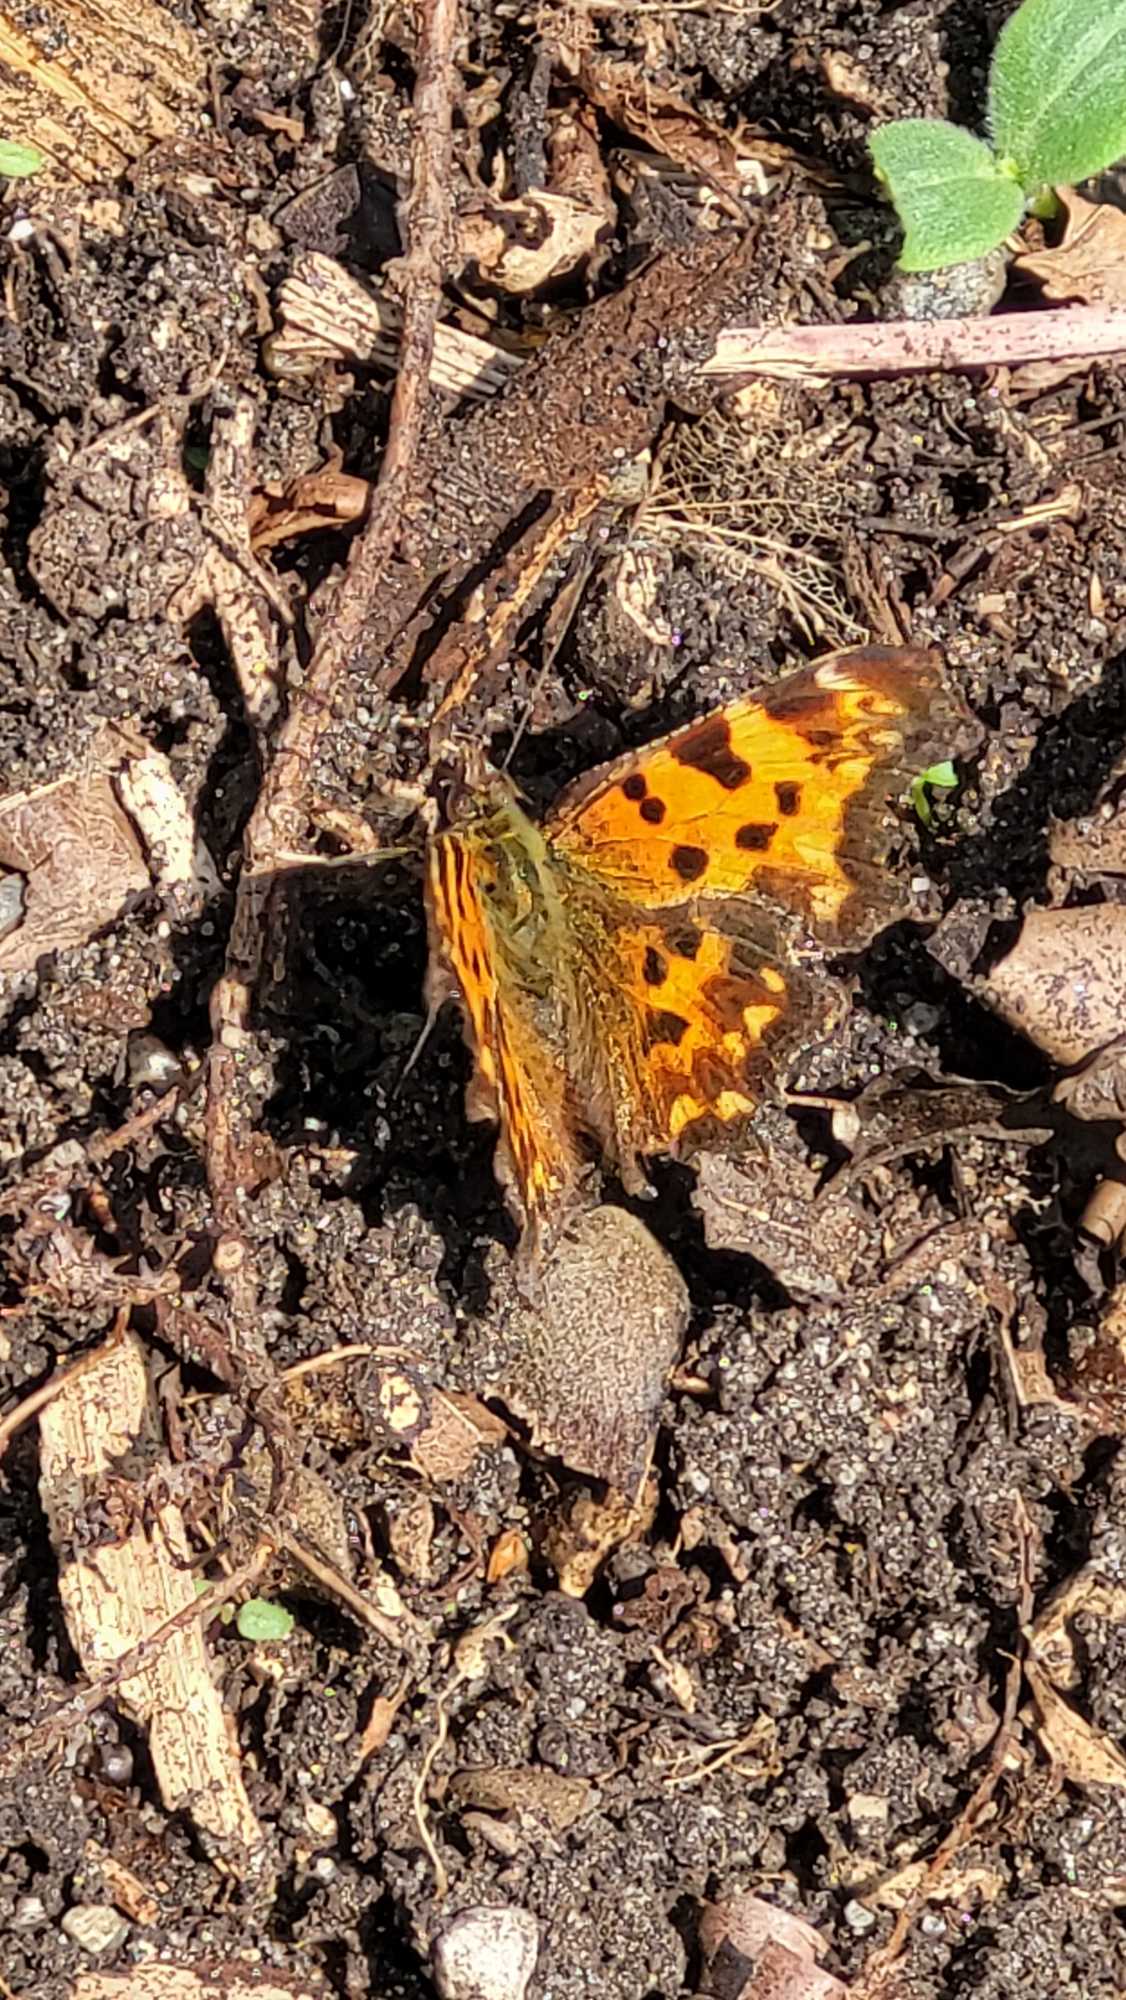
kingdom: Animalia
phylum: Arthropoda
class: Insecta
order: Lepidoptera
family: Nymphalidae
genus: Polygonia
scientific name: Polygonia c-album
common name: Det hvide C
